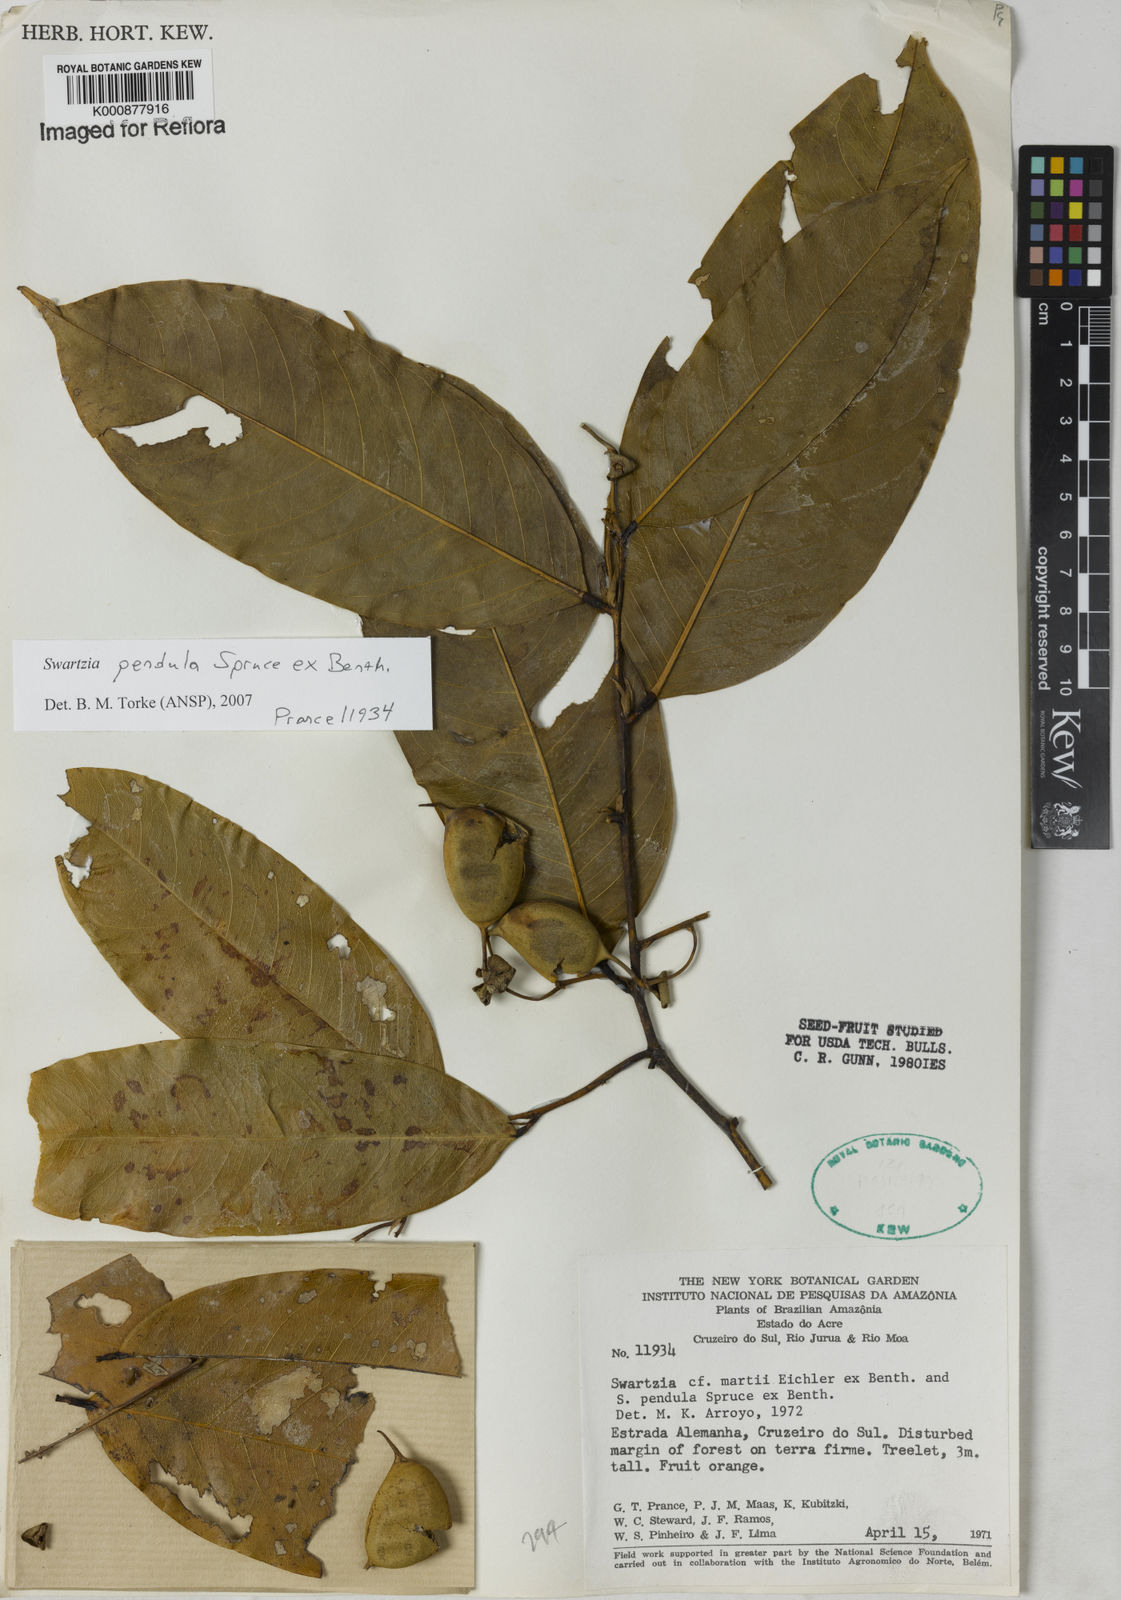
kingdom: Plantae
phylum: Tracheophyta
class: Magnoliopsida
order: Fabales
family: Fabaceae
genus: Swartzia
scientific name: Swartzia pendula
